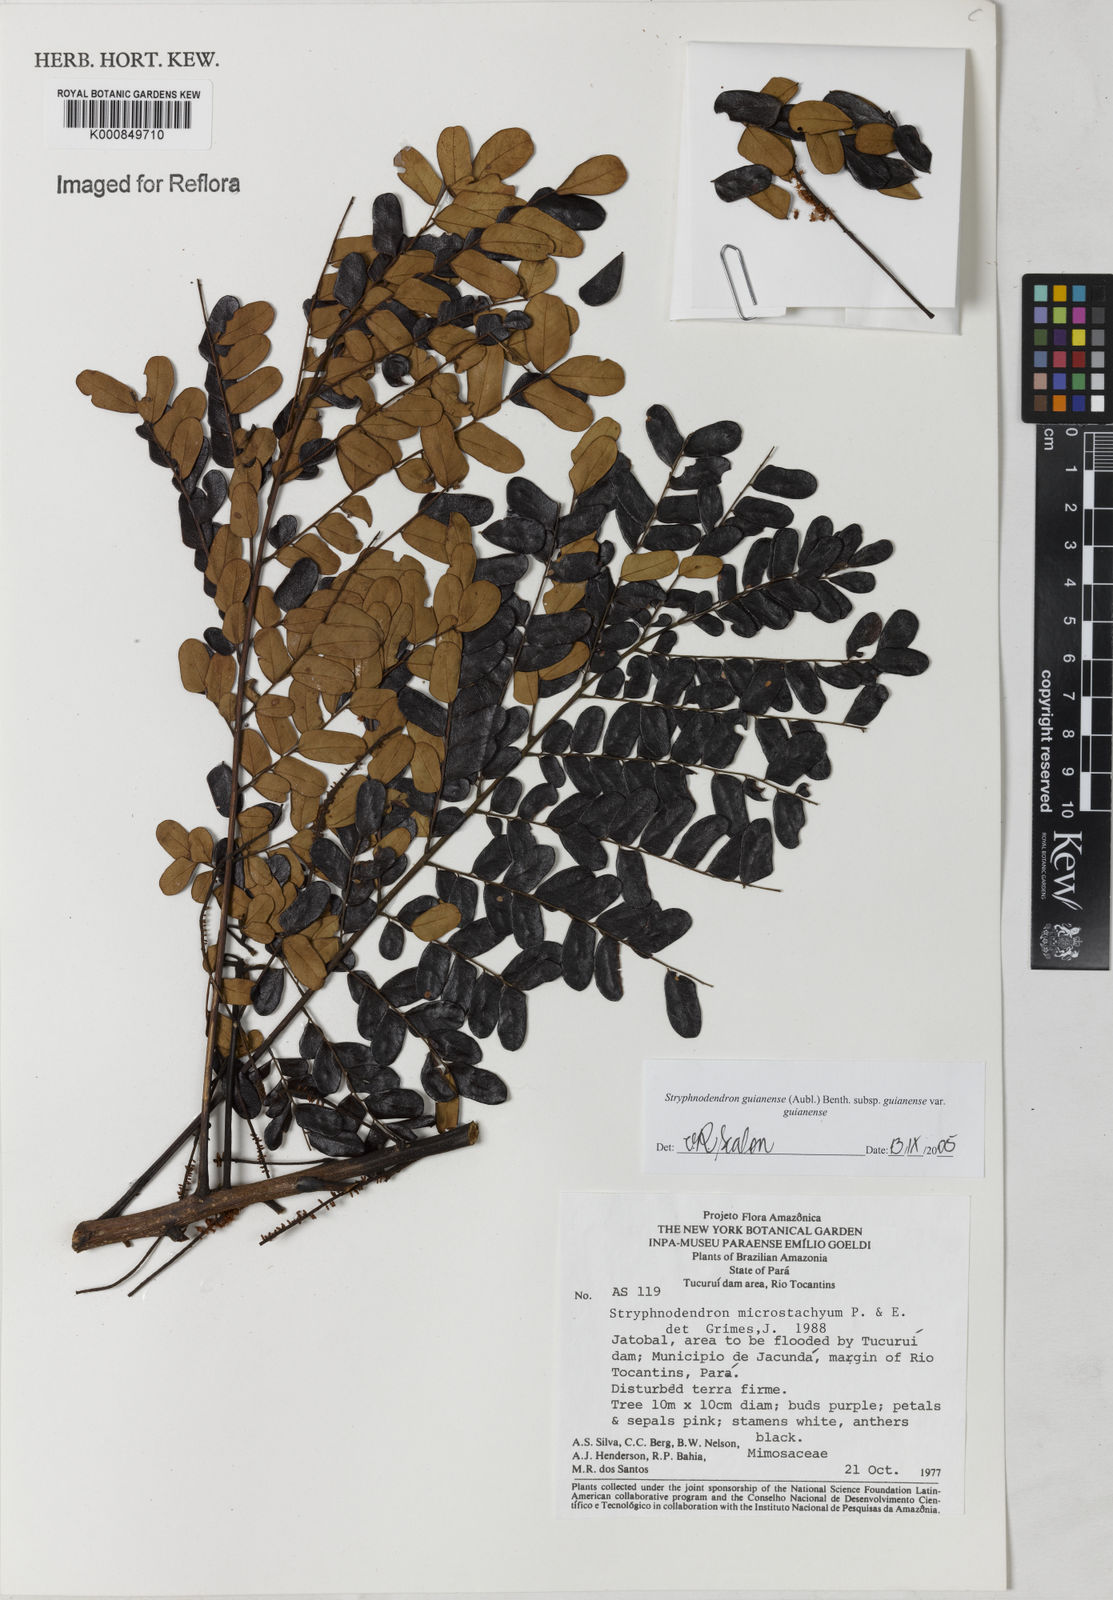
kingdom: Plantae
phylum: Tracheophyta
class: Magnoliopsida
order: Fabales
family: Fabaceae
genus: Stryphnodendron
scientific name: Stryphnodendron guianense
